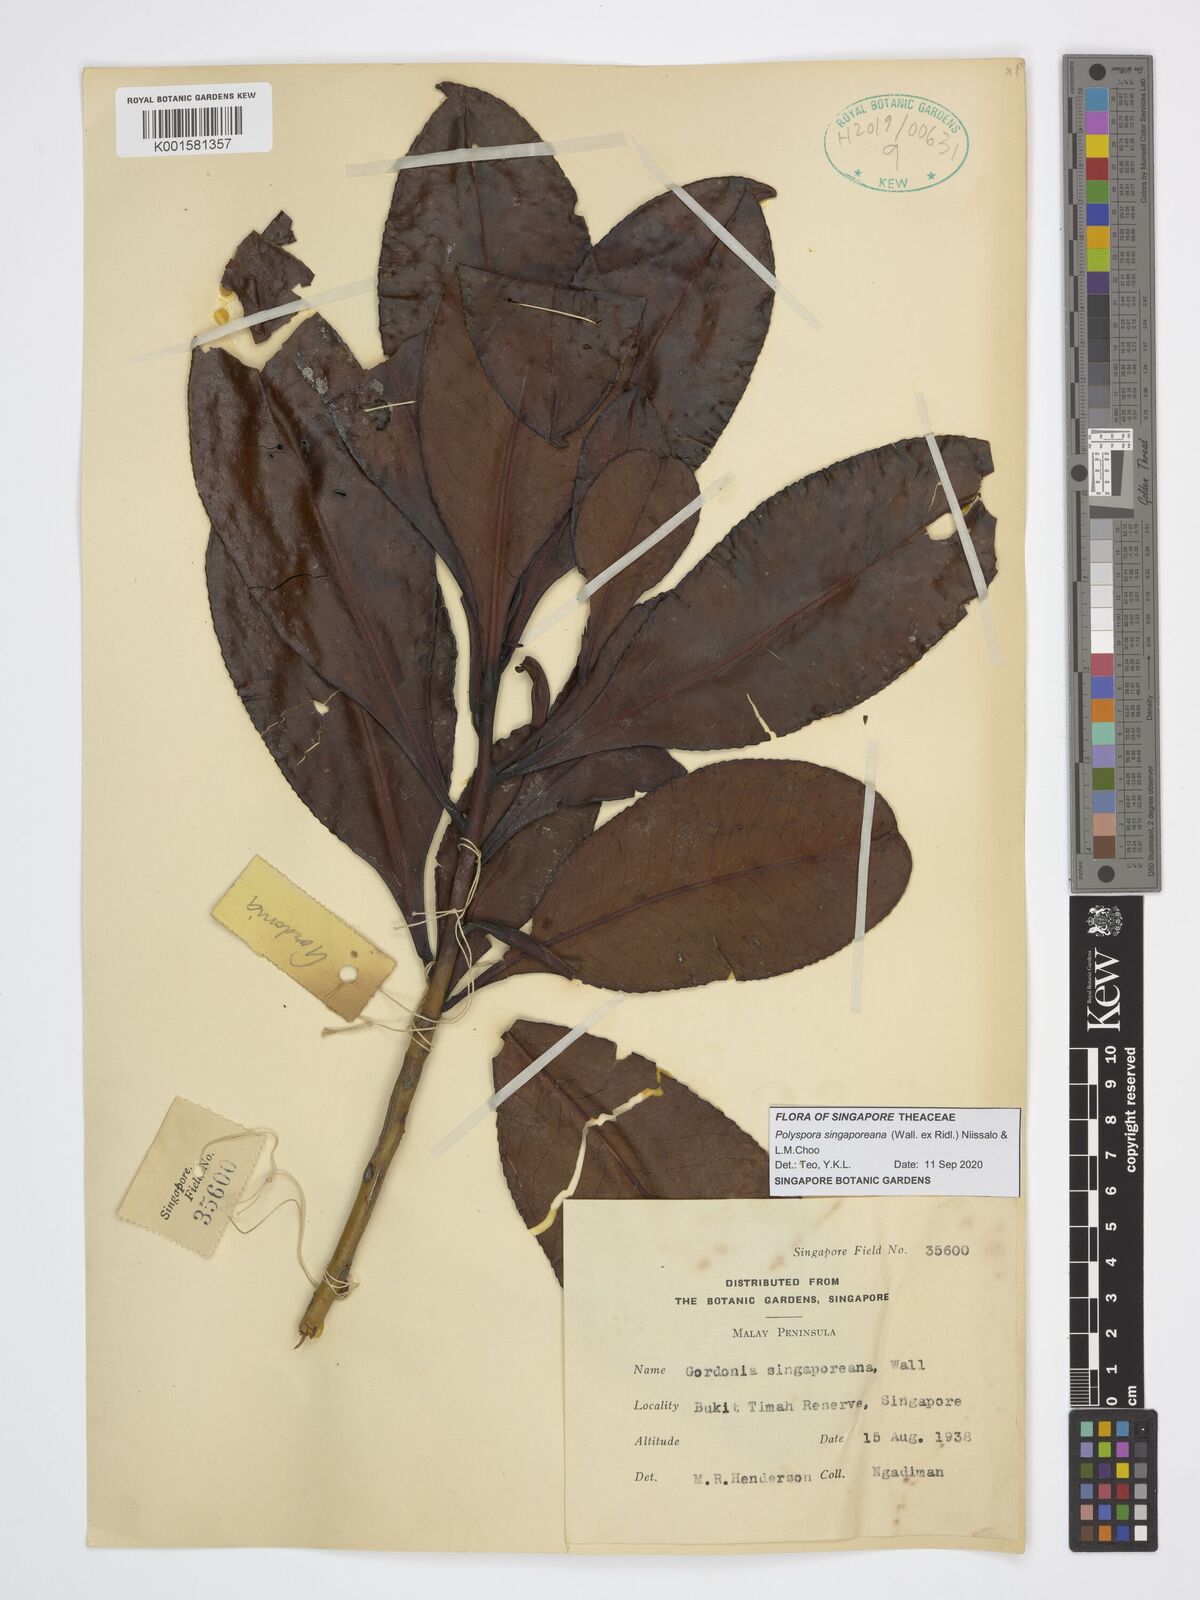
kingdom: Plantae
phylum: Tracheophyta
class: Magnoliopsida
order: Ericales
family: Theaceae
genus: Polyspora
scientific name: Polyspora
